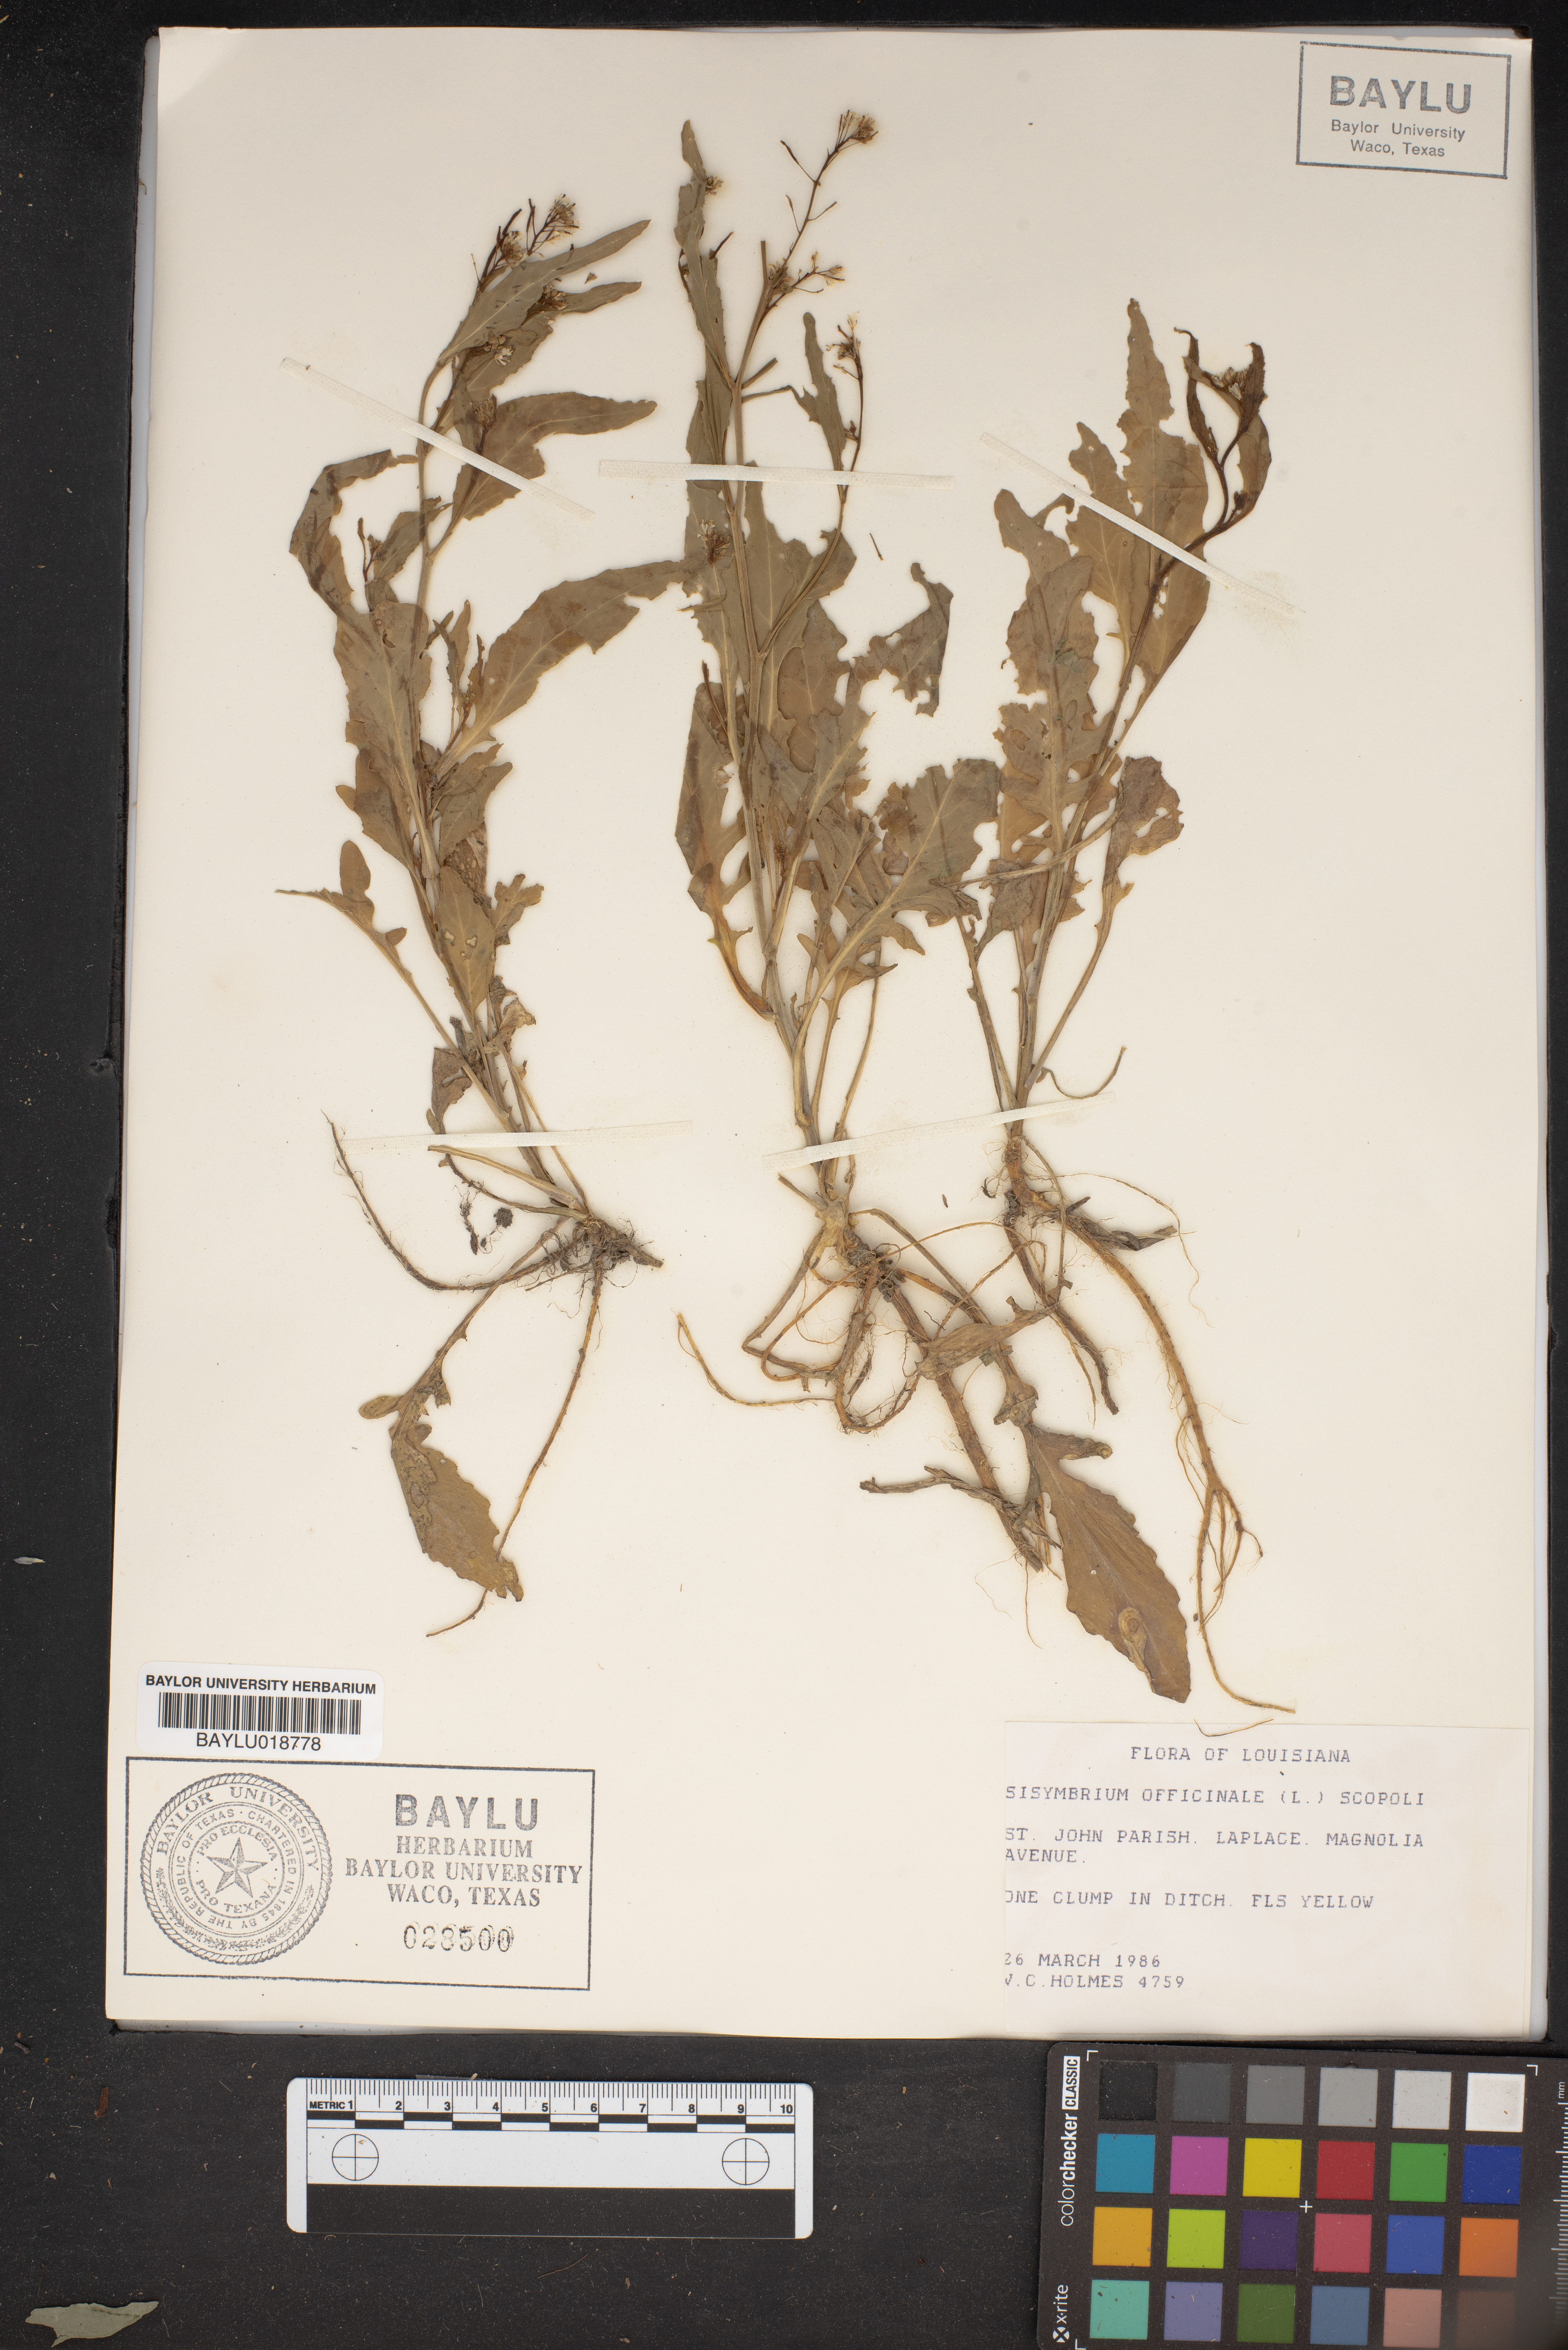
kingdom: Plantae
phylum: Tracheophyta
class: Magnoliopsida
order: Brassicales
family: Brassicaceae
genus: Sisymbrium
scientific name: Sisymbrium officinale
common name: Hedge mustard
